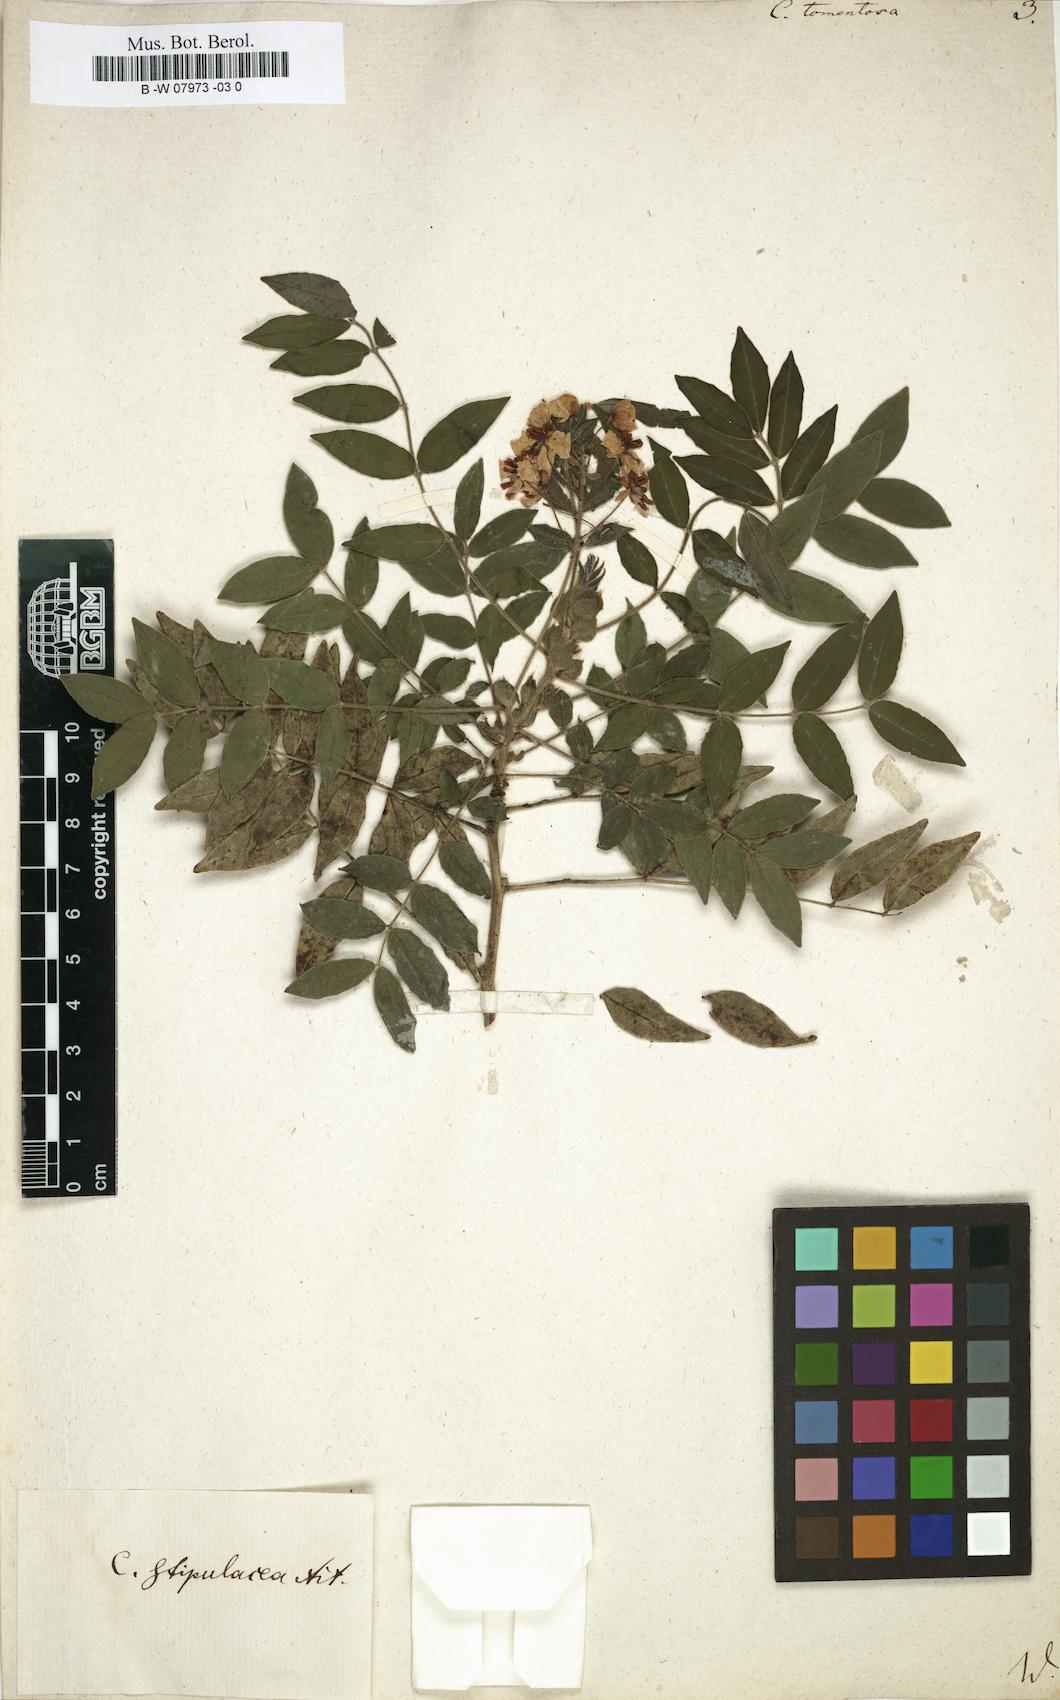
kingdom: Plantae
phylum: Tracheophyta
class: Magnoliopsida
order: Fabales
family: Fabaceae
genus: Senna
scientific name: Senna
